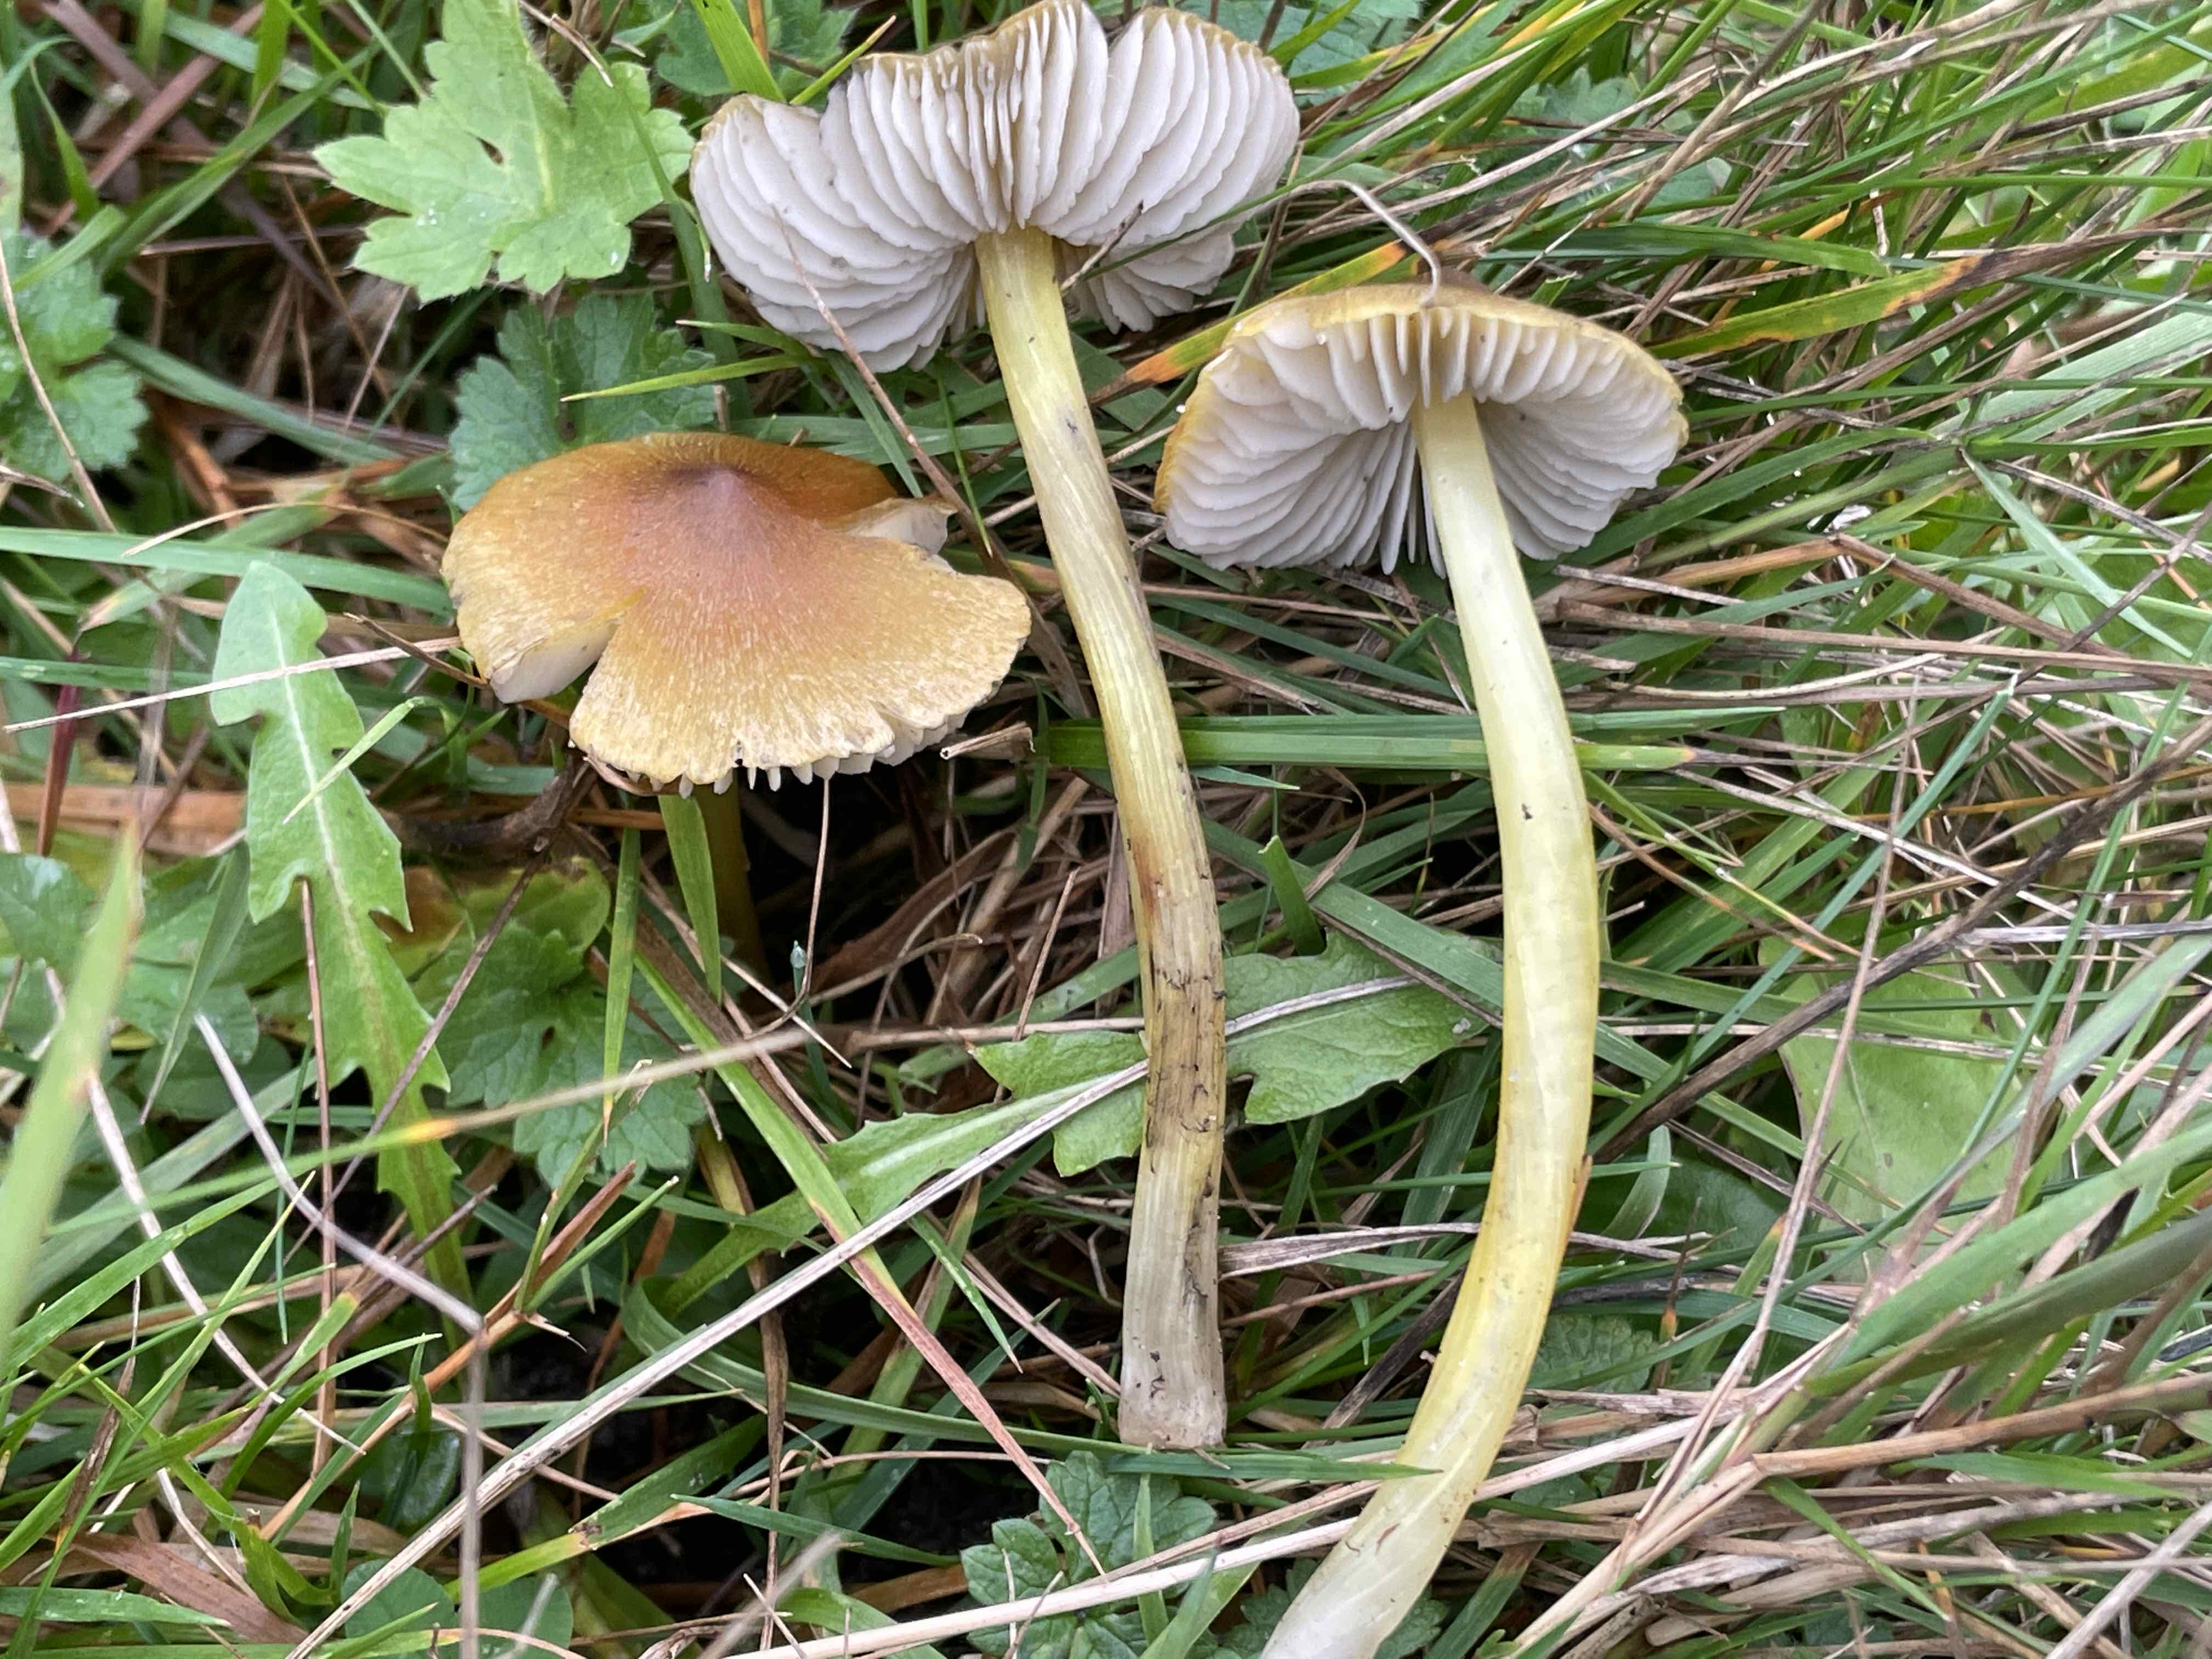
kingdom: Fungi
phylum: Basidiomycota
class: Agaricomycetes
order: Agaricales
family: Hygrophoraceae
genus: Hygrocybe
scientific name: Hygrocybe conica
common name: kegle-vokshat
